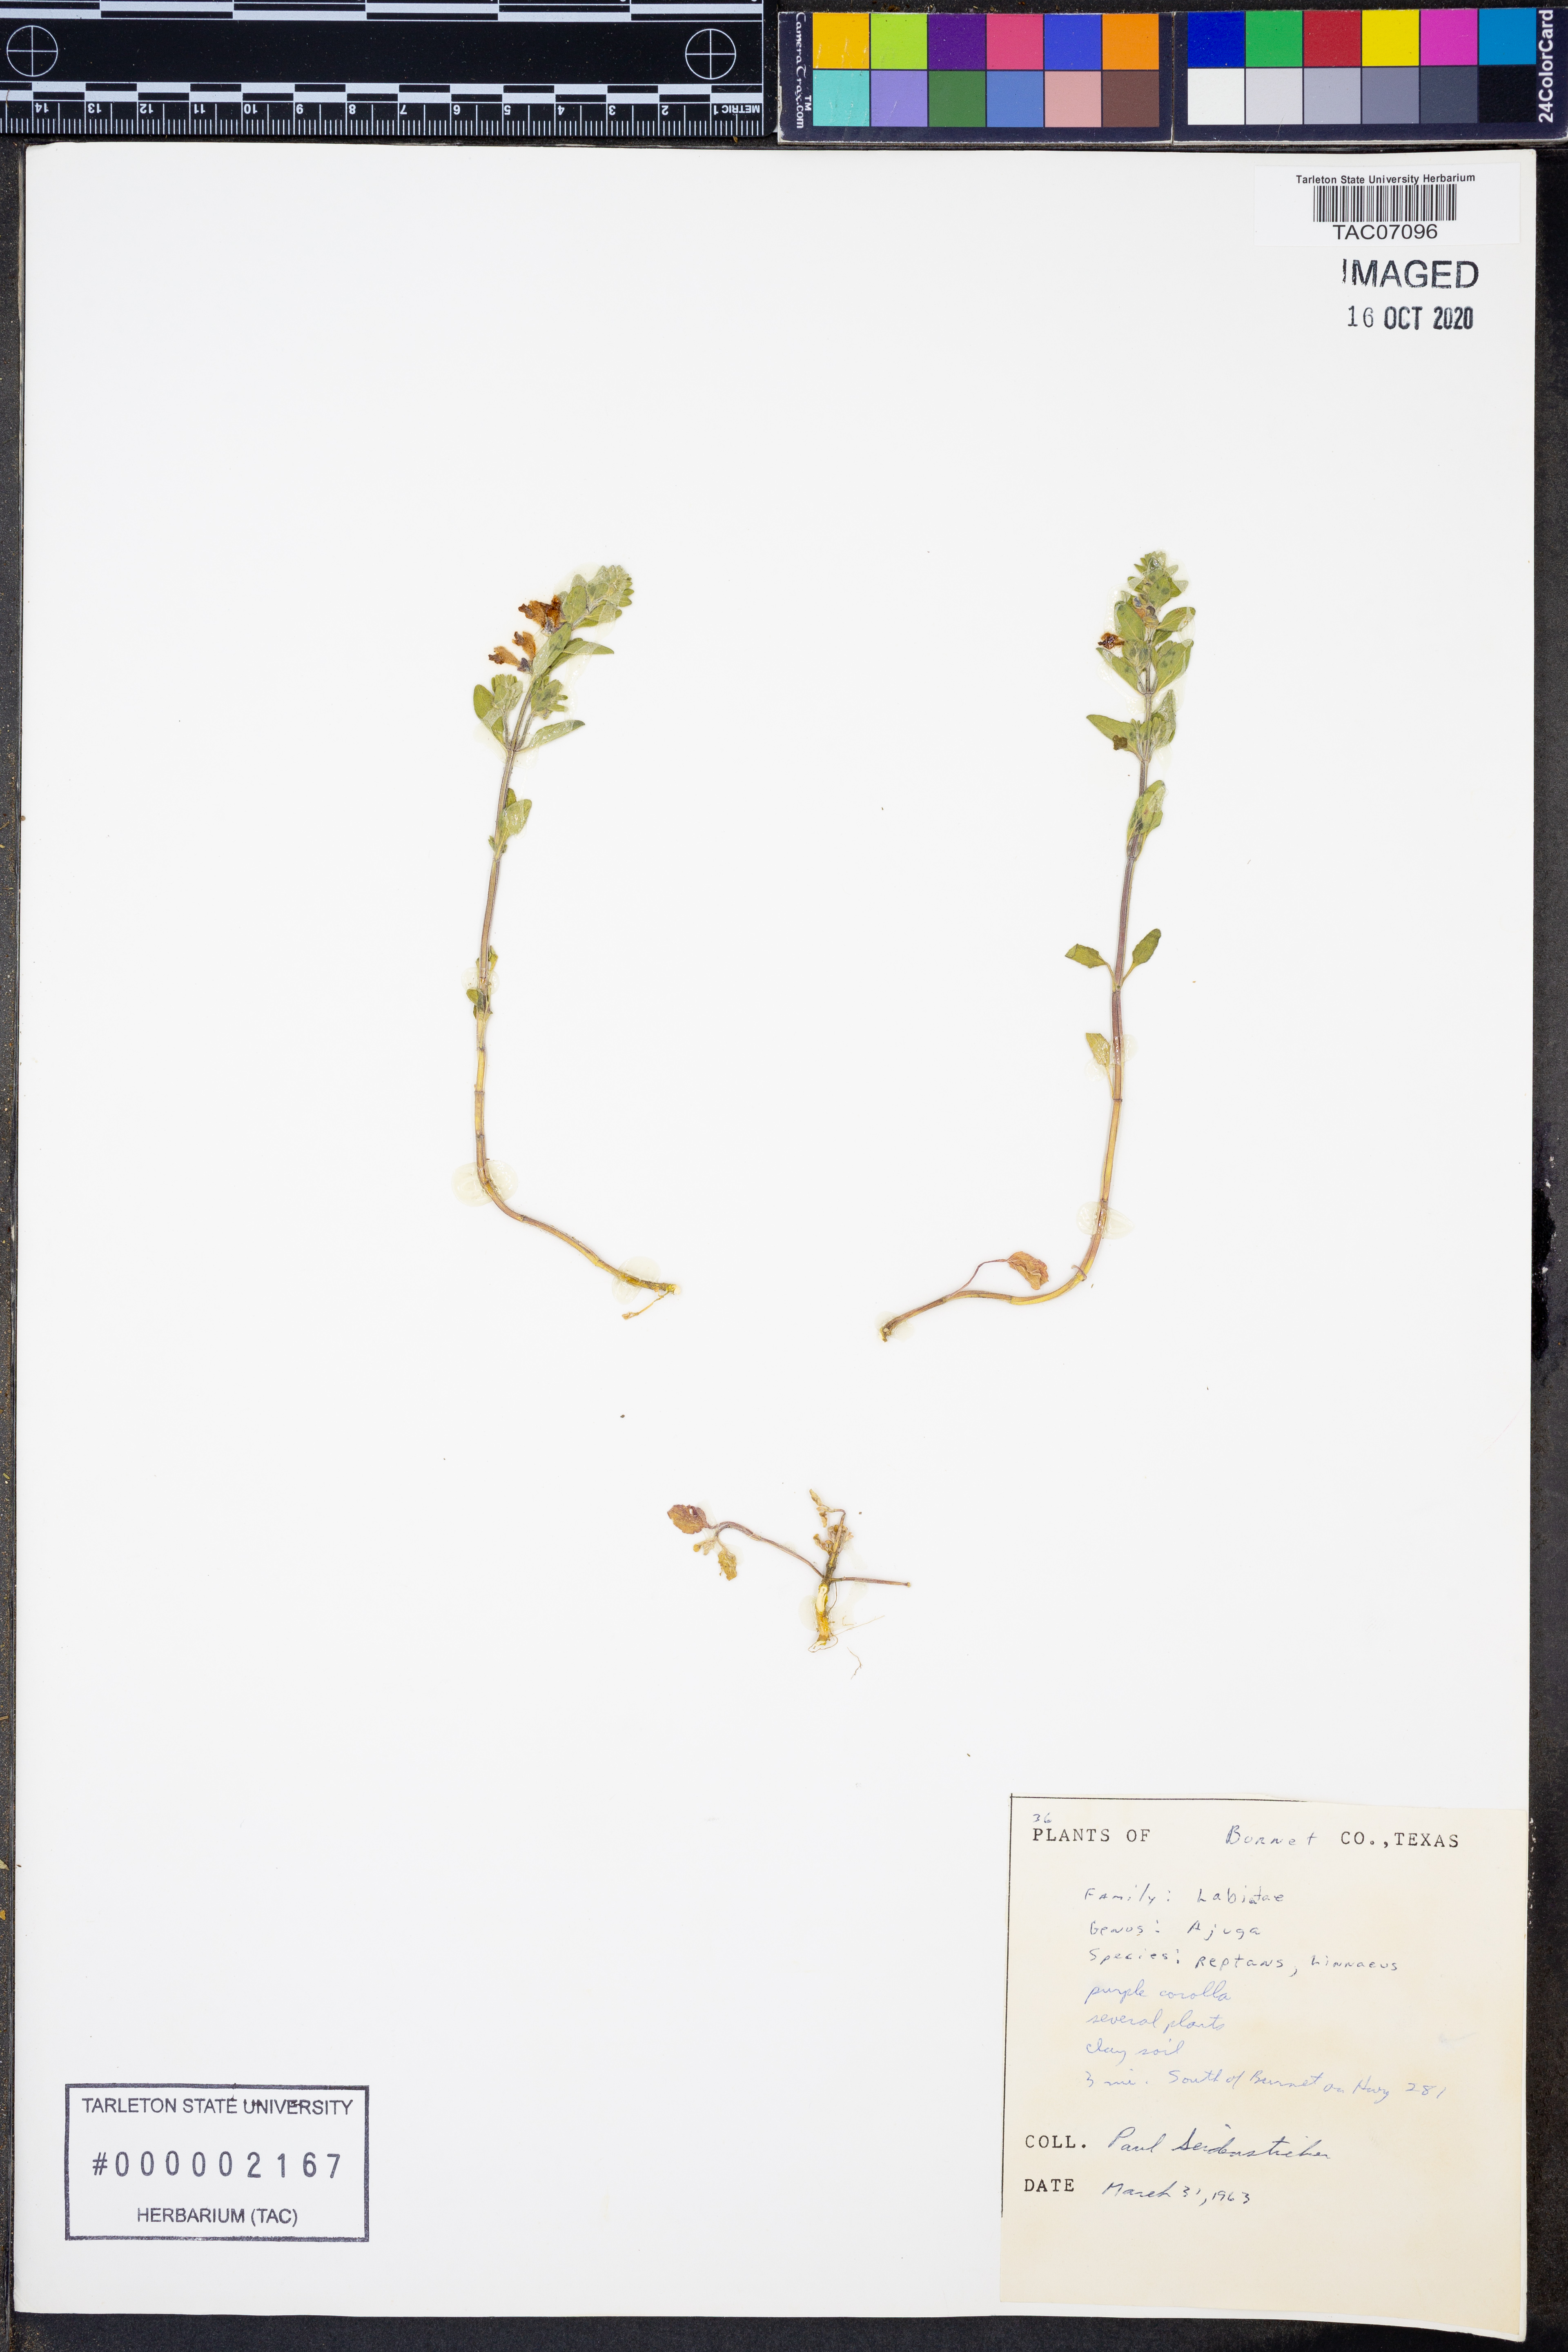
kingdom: Plantae
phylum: Tracheophyta
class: Magnoliopsida
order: Lamiales
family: Lamiaceae
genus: Ajuga
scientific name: Ajuga reptans
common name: Bugle
